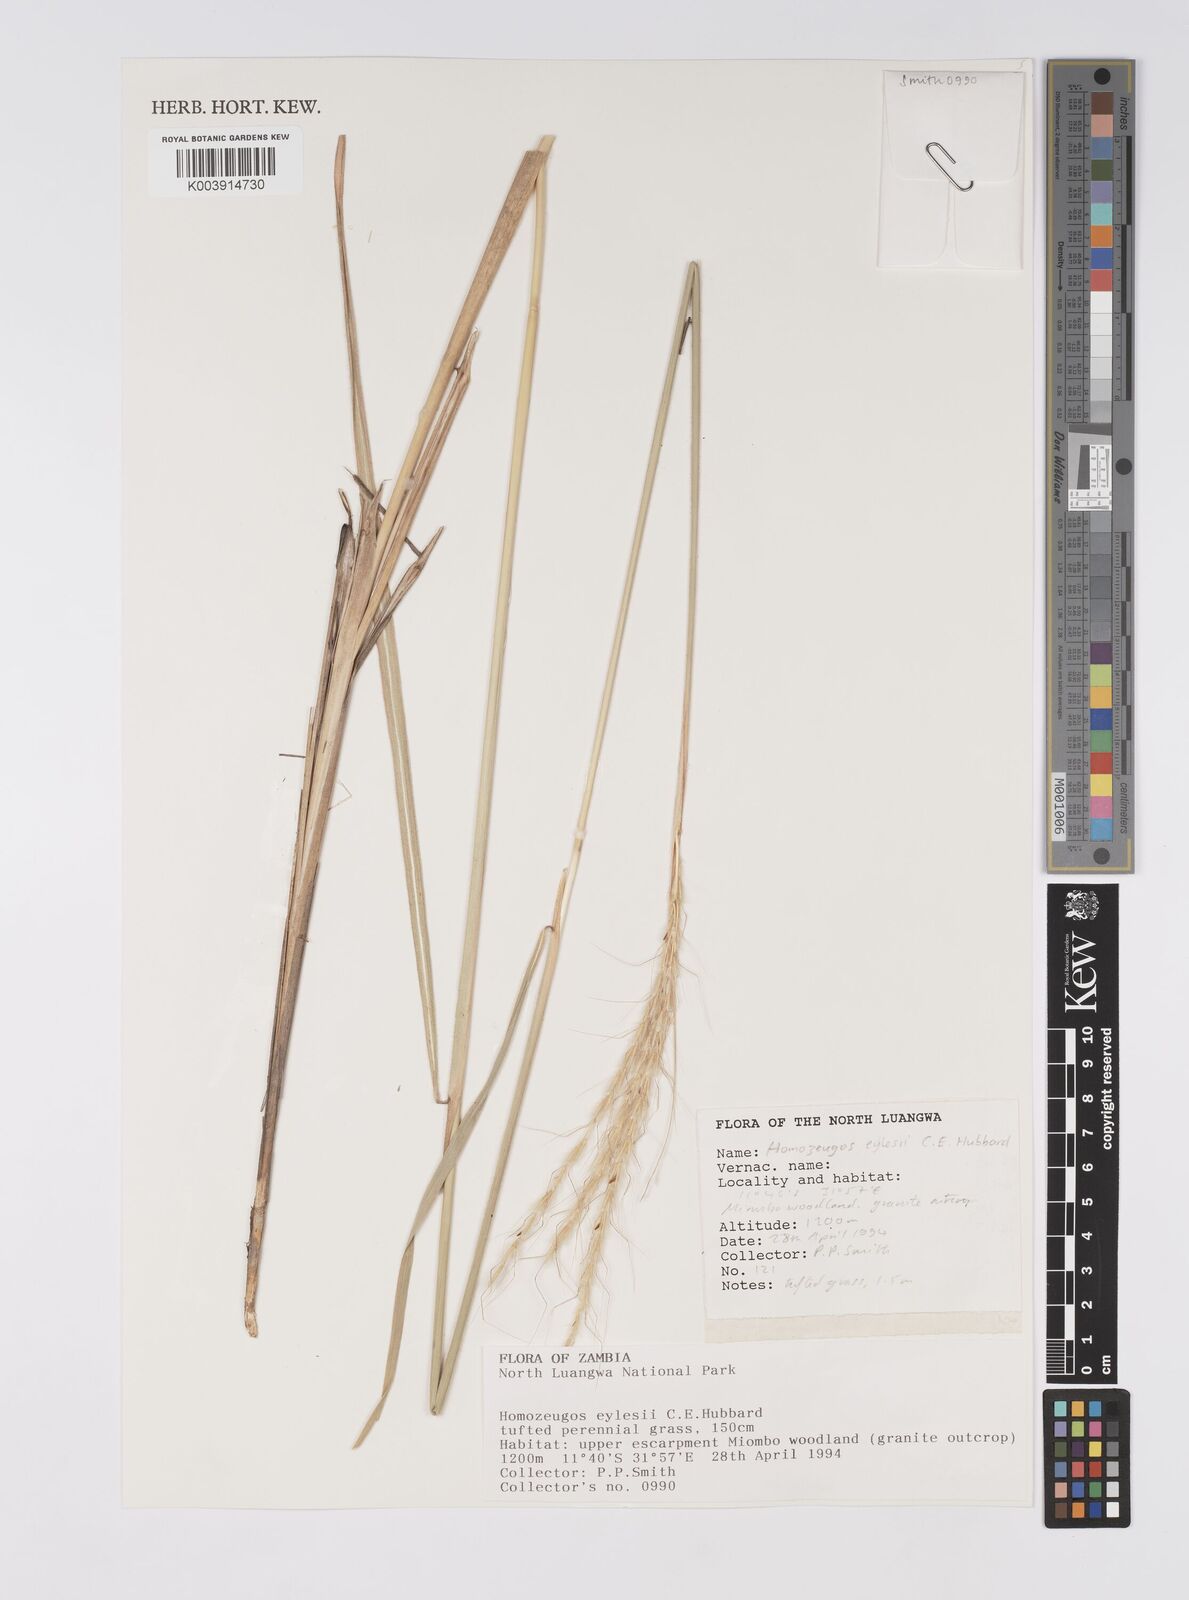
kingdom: Plantae
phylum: Tracheophyta
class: Liliopsida
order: Poales
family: Poaceae
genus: Homozeugos
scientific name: Homozeugos eylesii
